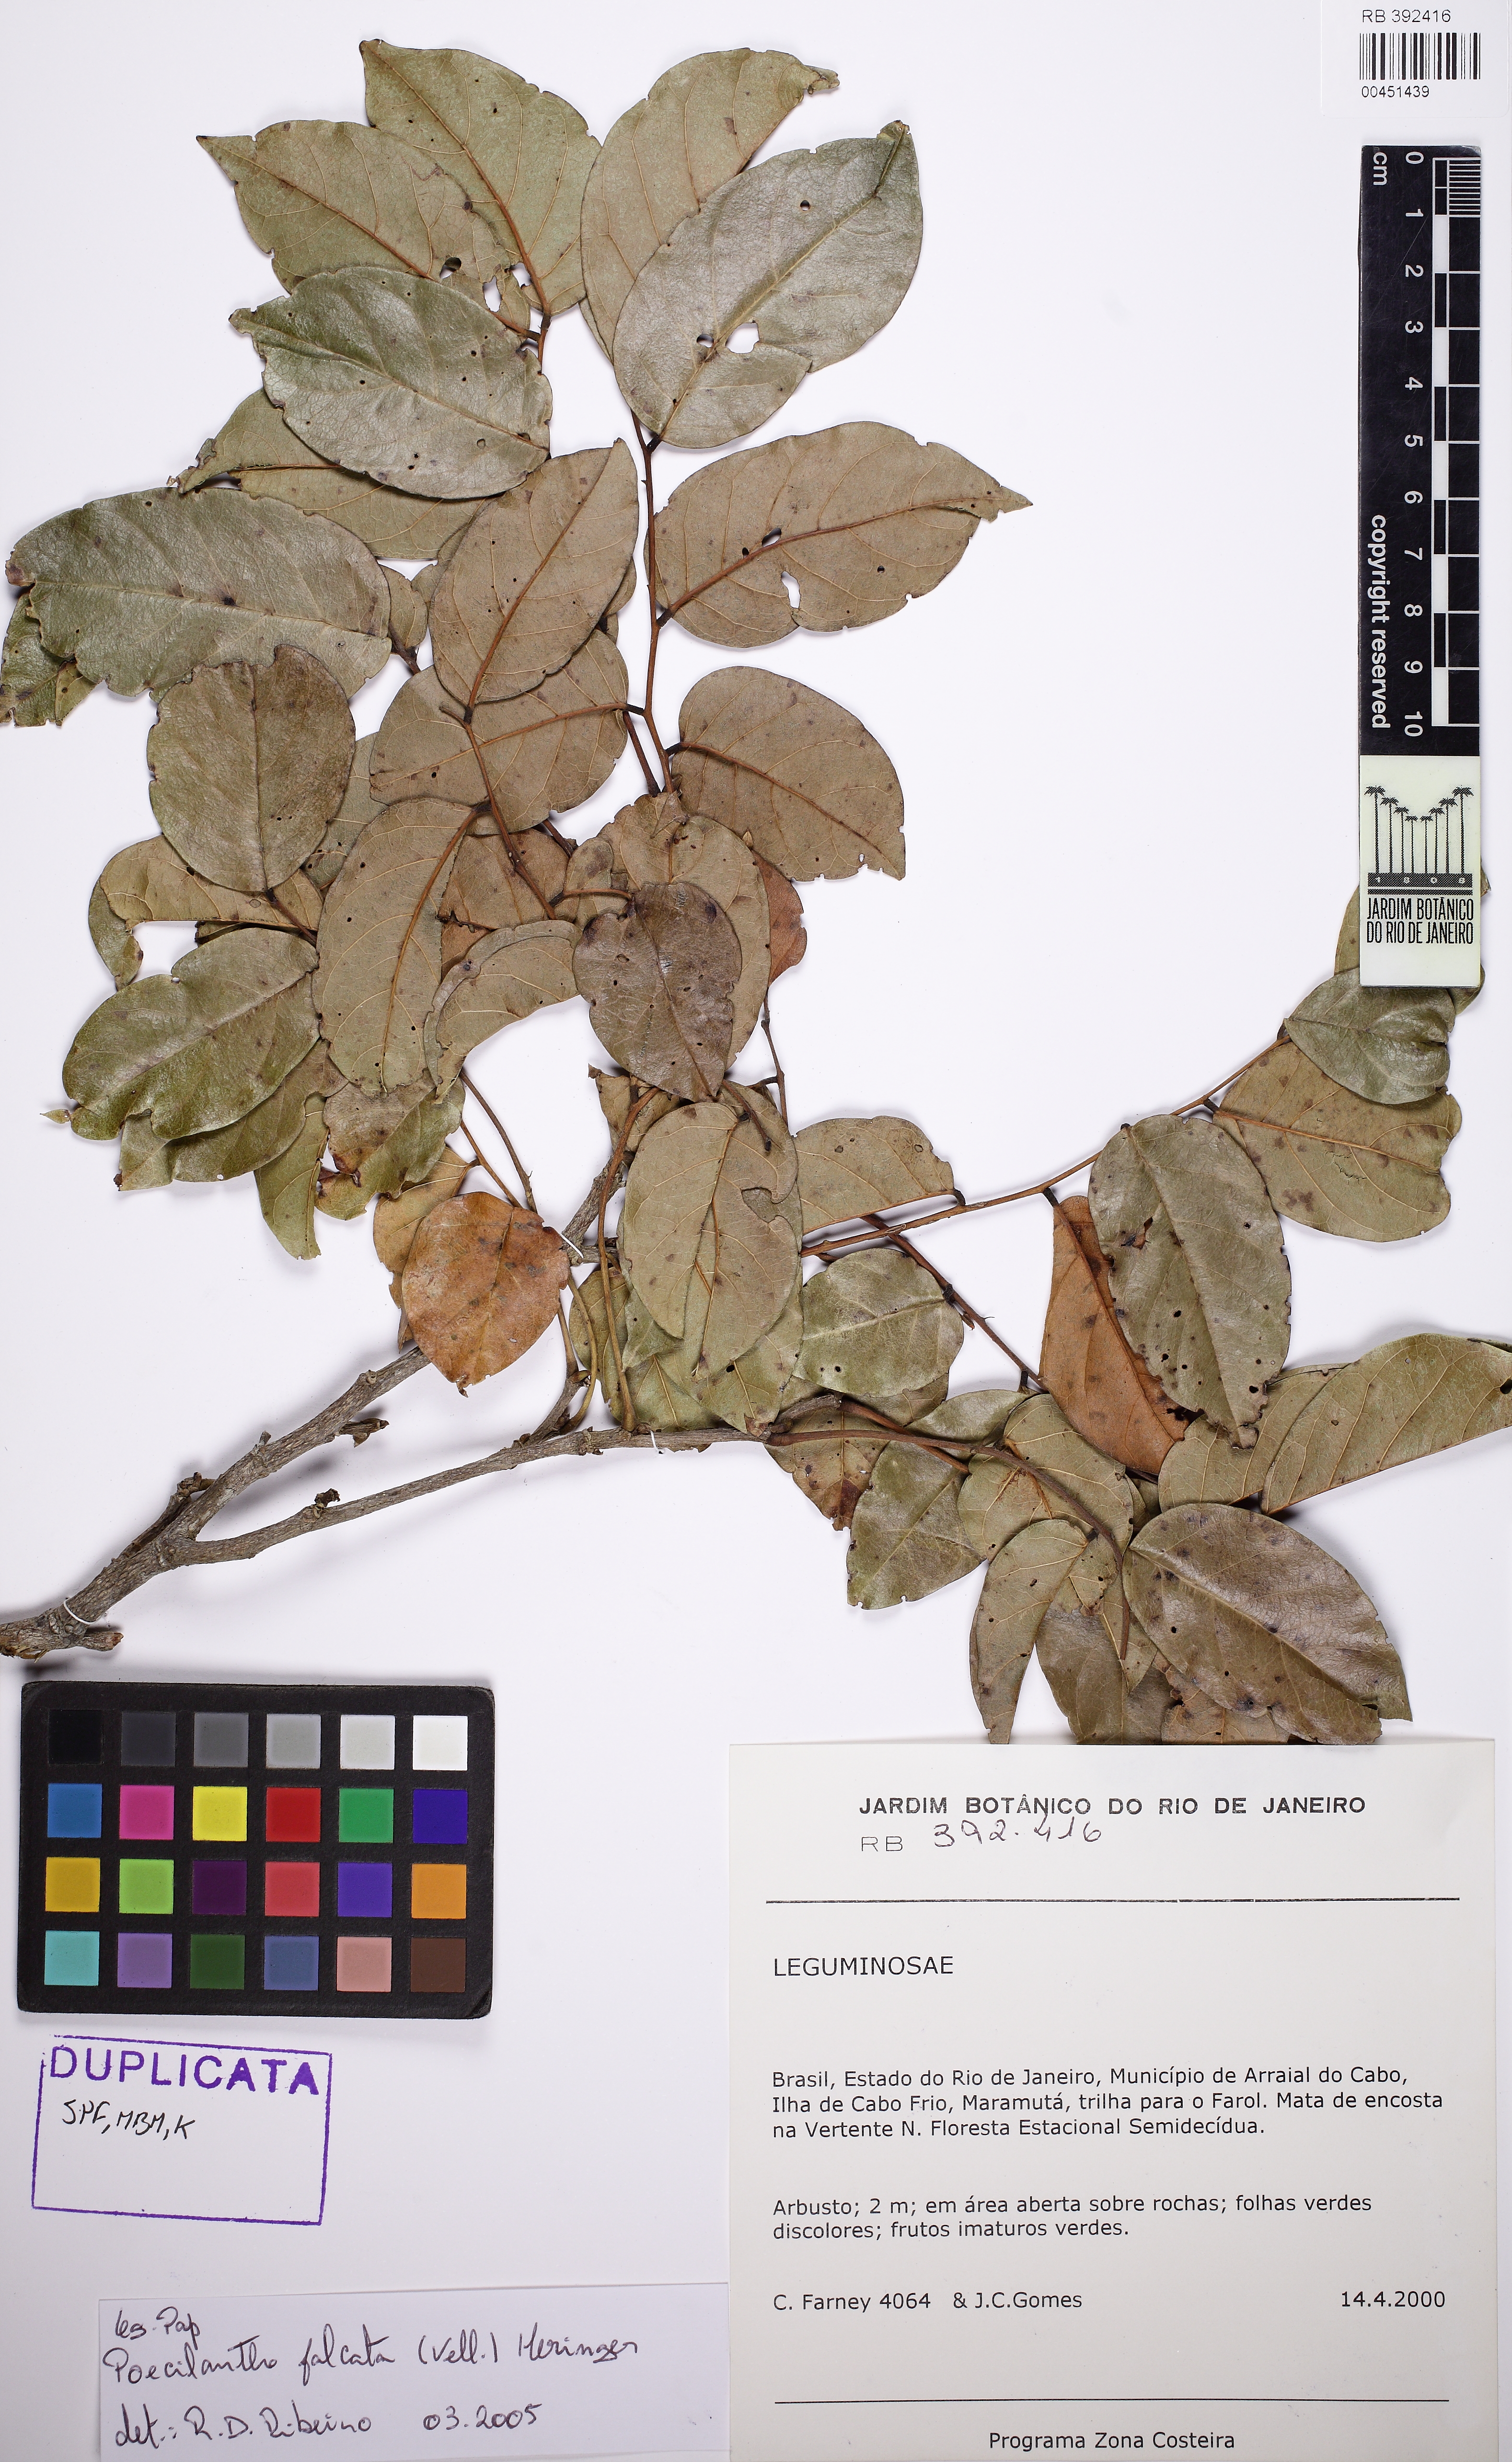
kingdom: Plantae
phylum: Tracheophyta
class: Magnoliopsida
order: Fabales
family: Fabaceae
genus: Poecilanthe
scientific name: Poecilanthe falcata
